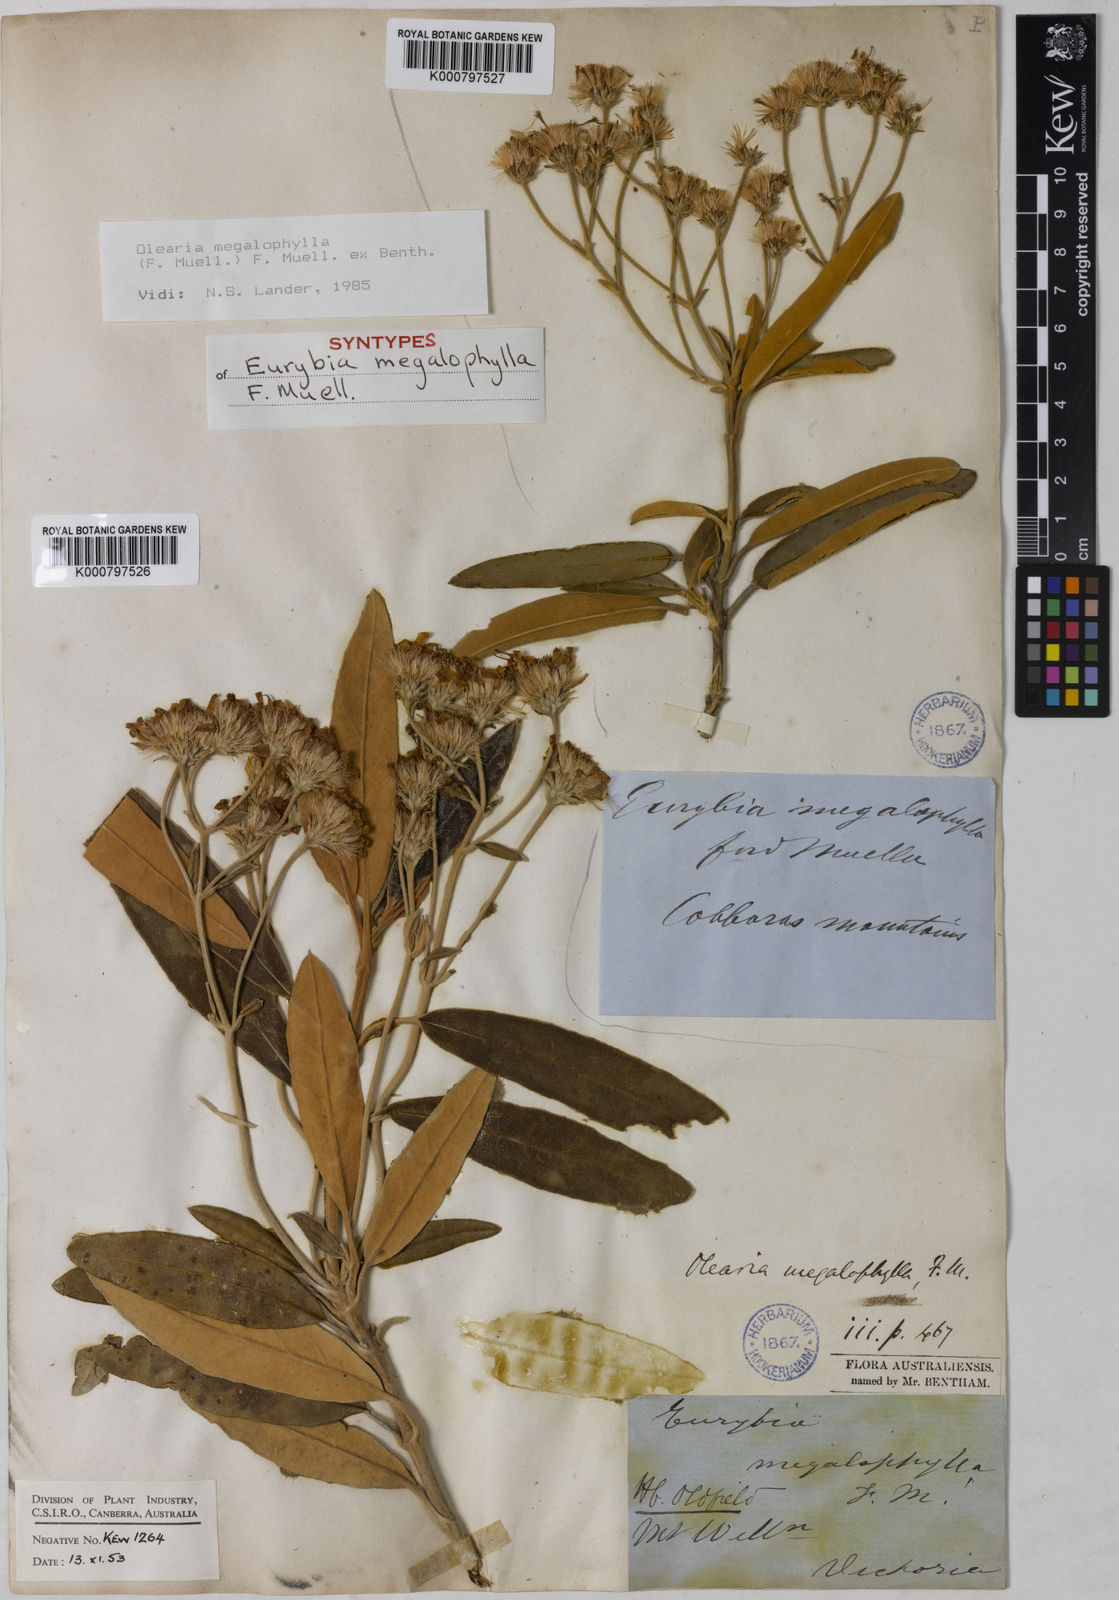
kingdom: Plantae
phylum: Tracheophyta
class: Magnoliopsida
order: Asterales
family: Asteraceae
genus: Olearia
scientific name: Olearia
